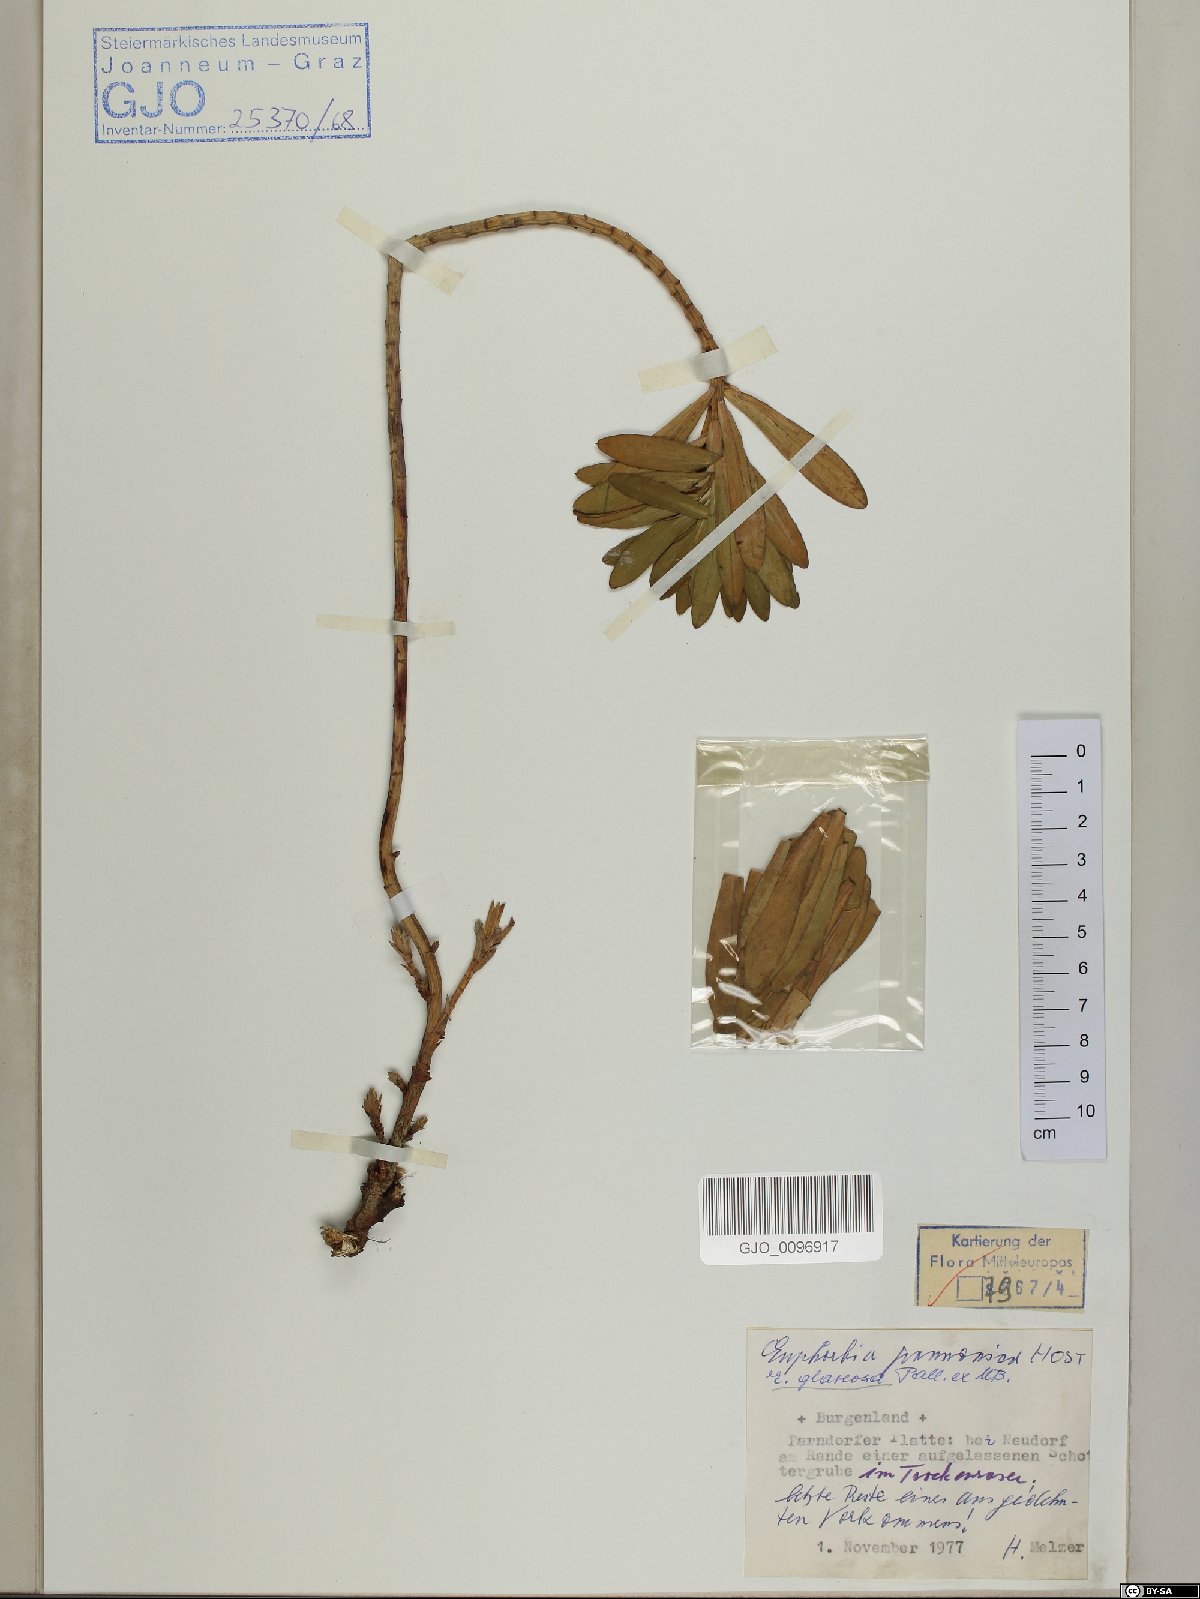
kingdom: Plantae
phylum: Tracheophyta
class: Magnoliopsida
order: Malpighiales
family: Euphorbiaceae
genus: Euphorbia
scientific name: Euphorbia glareosa
